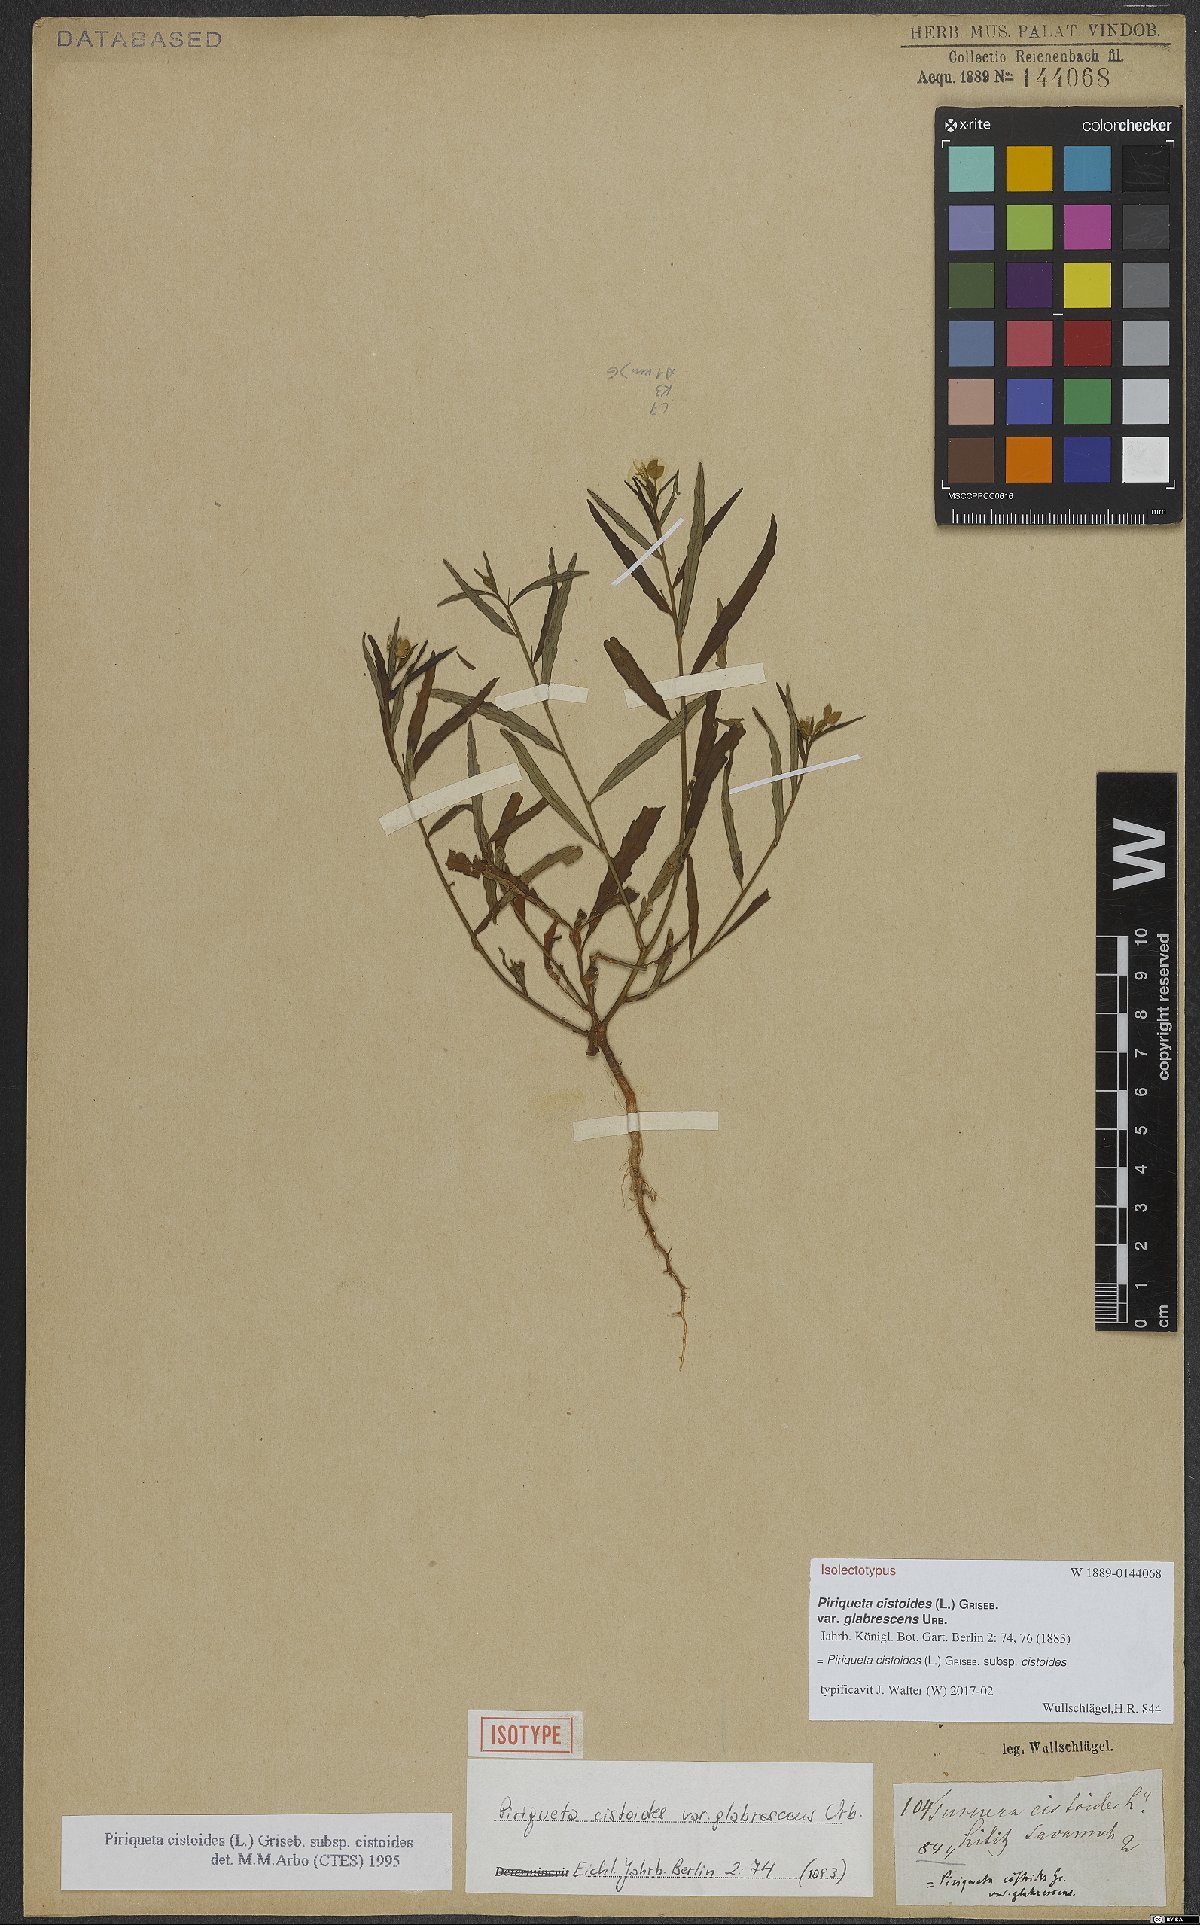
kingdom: Plantae
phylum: Tracheophyta
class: Magnoliopsida
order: Malpighiales
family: Turneraceae
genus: Piriqueta
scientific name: Piriqueta cistoides
